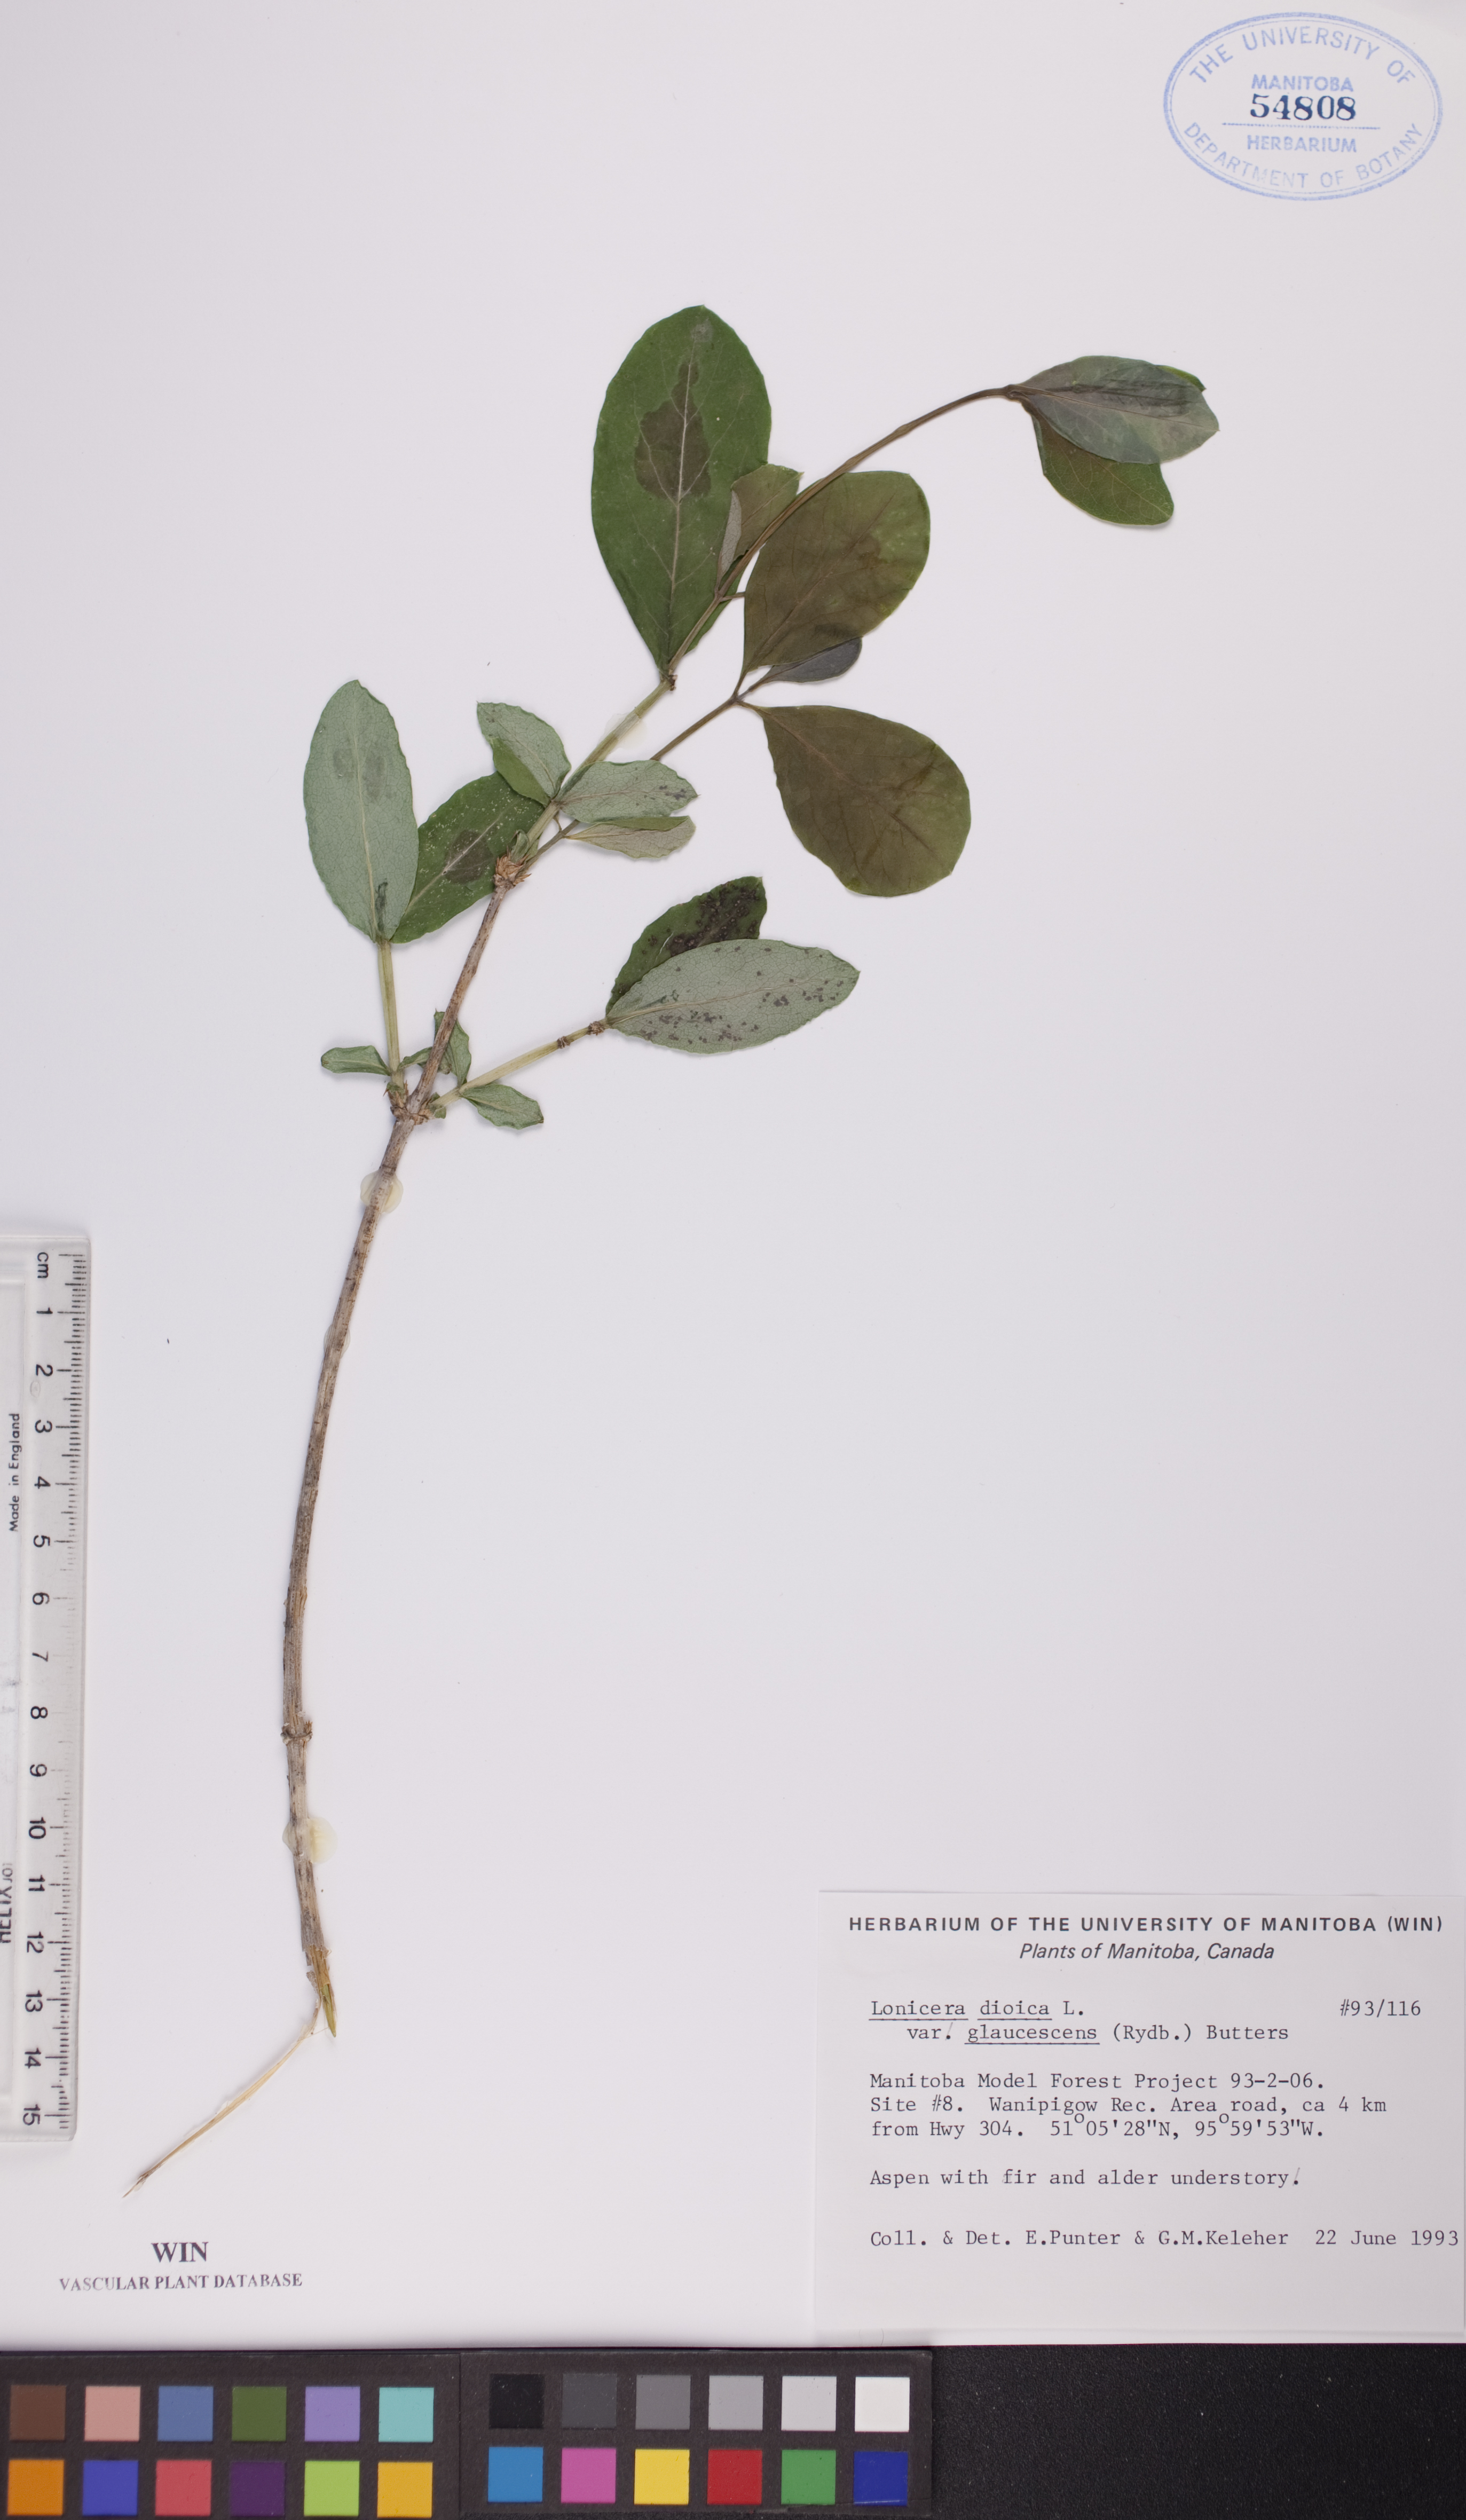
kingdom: Plantae
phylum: Tracheophyta
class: Magnoliopsida
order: Dipsacales
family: Caprifoliaceae
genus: Lonicera
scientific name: Lonicera dioica
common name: Limber honeysuckle
